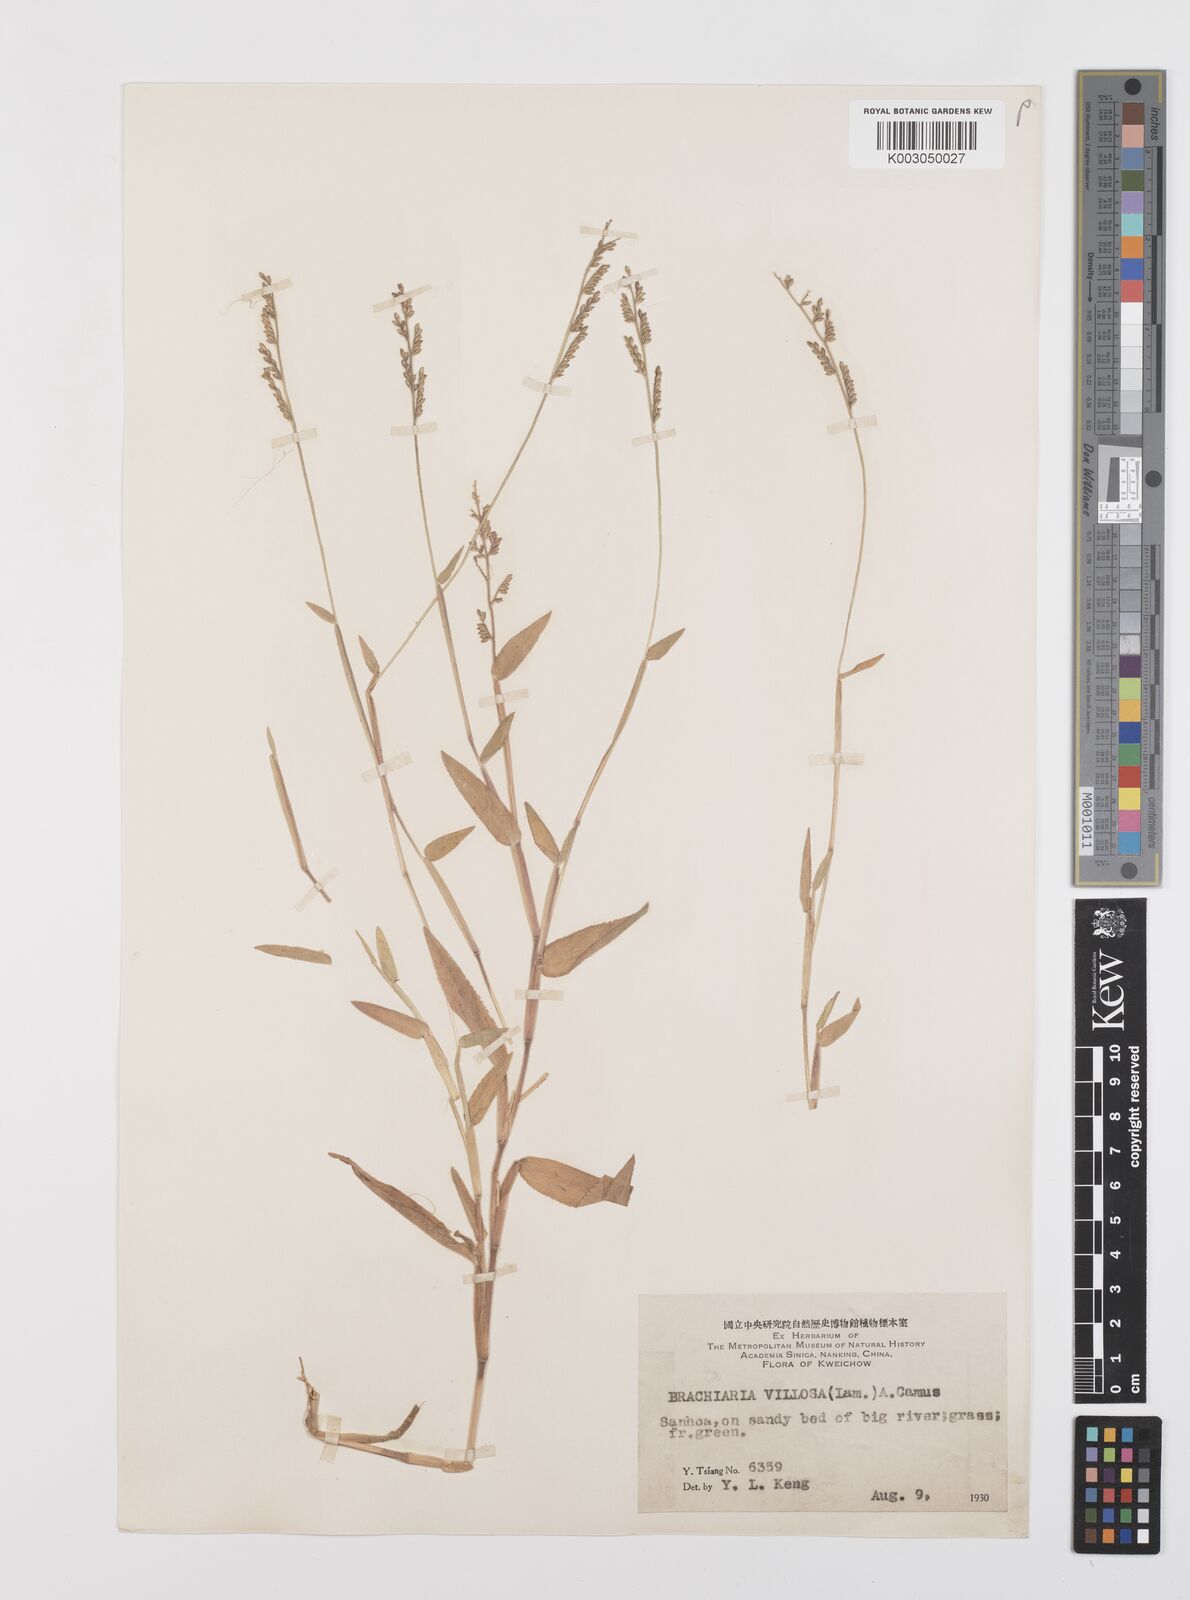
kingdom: Plantae
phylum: Tracheophyta
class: Liliopsida
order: Poales
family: Poaceae
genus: Urochloa
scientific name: Urochloa villosa
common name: Hairy signalgrass
